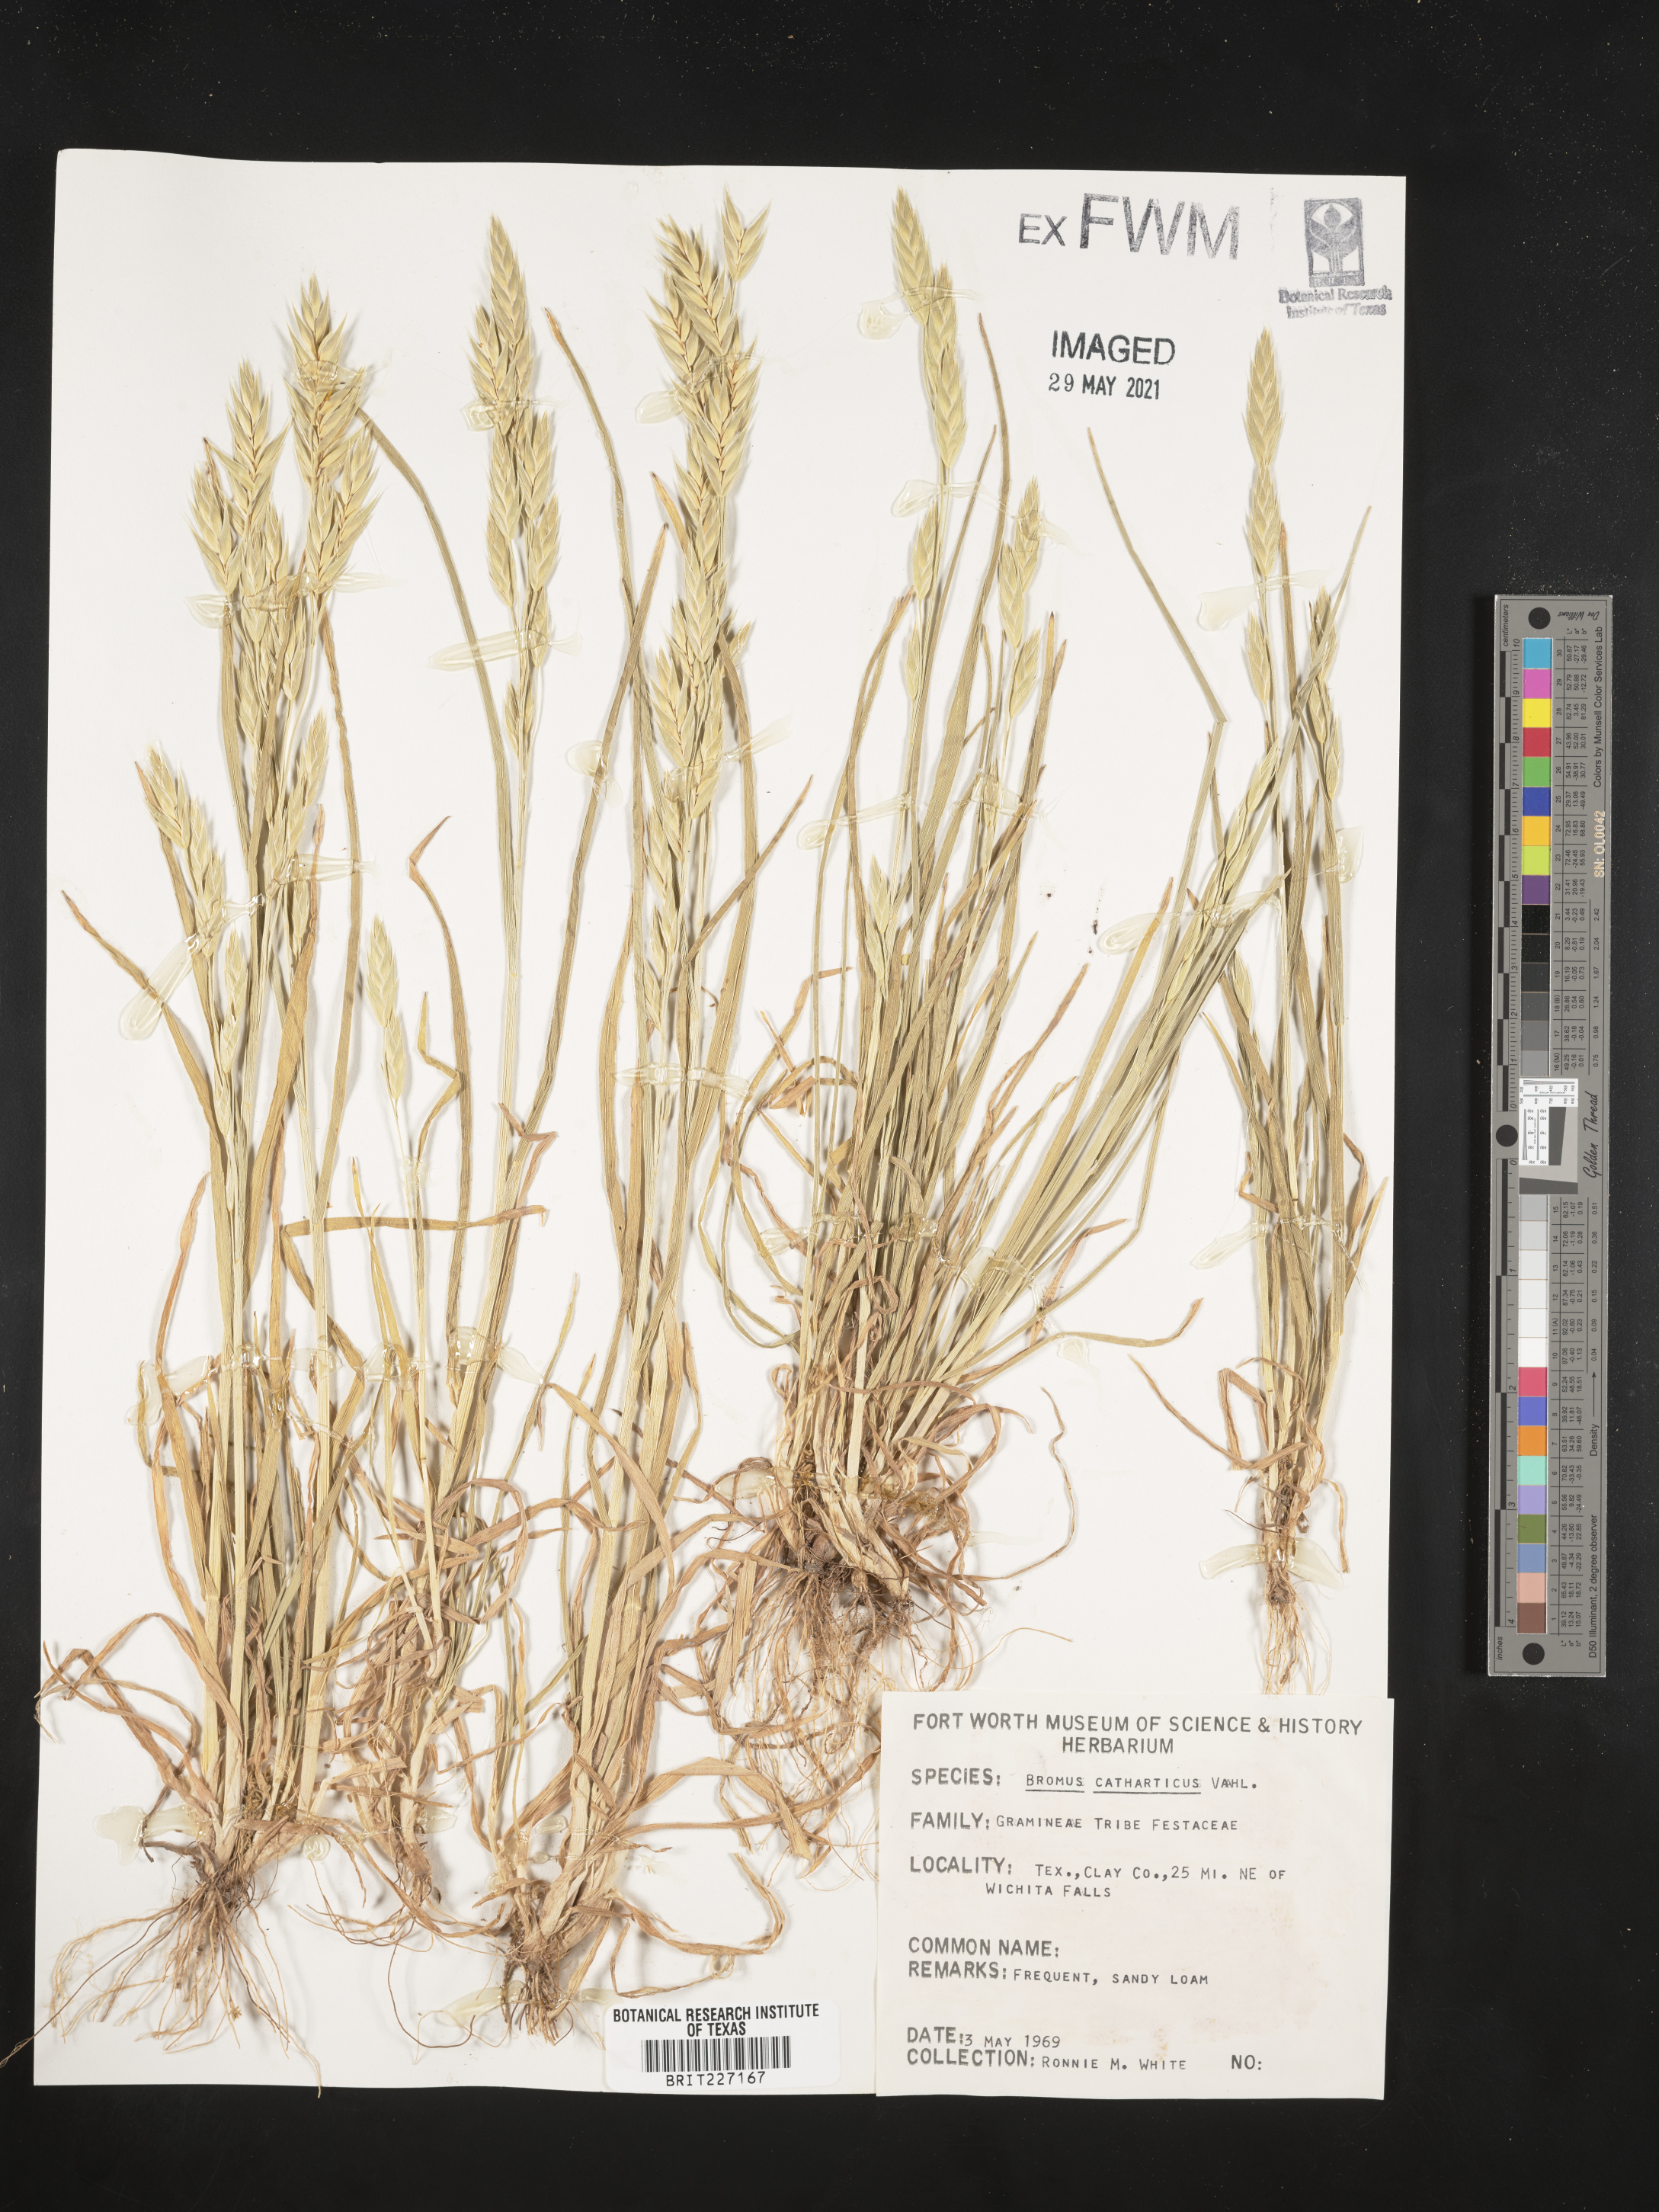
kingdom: Plantae
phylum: Tracheophyta
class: Liliopsida
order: Poales
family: Poaceae
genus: Bromus
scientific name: Bromus catharticus
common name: Rescuegrass
